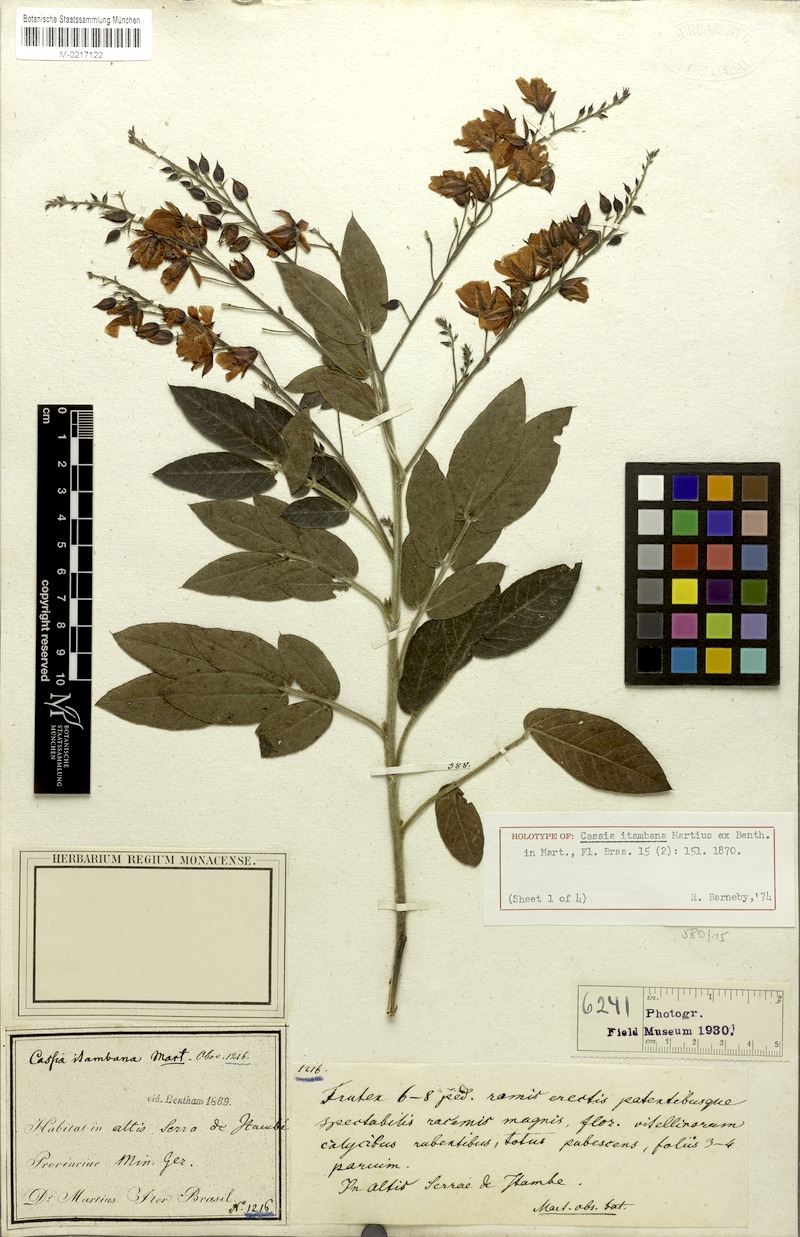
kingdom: Plantae
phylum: Tracheophyta
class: Magnoliopsida
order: Fabales
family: Fabaceae
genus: Chamaecrista
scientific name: Chamaecrista itambana
